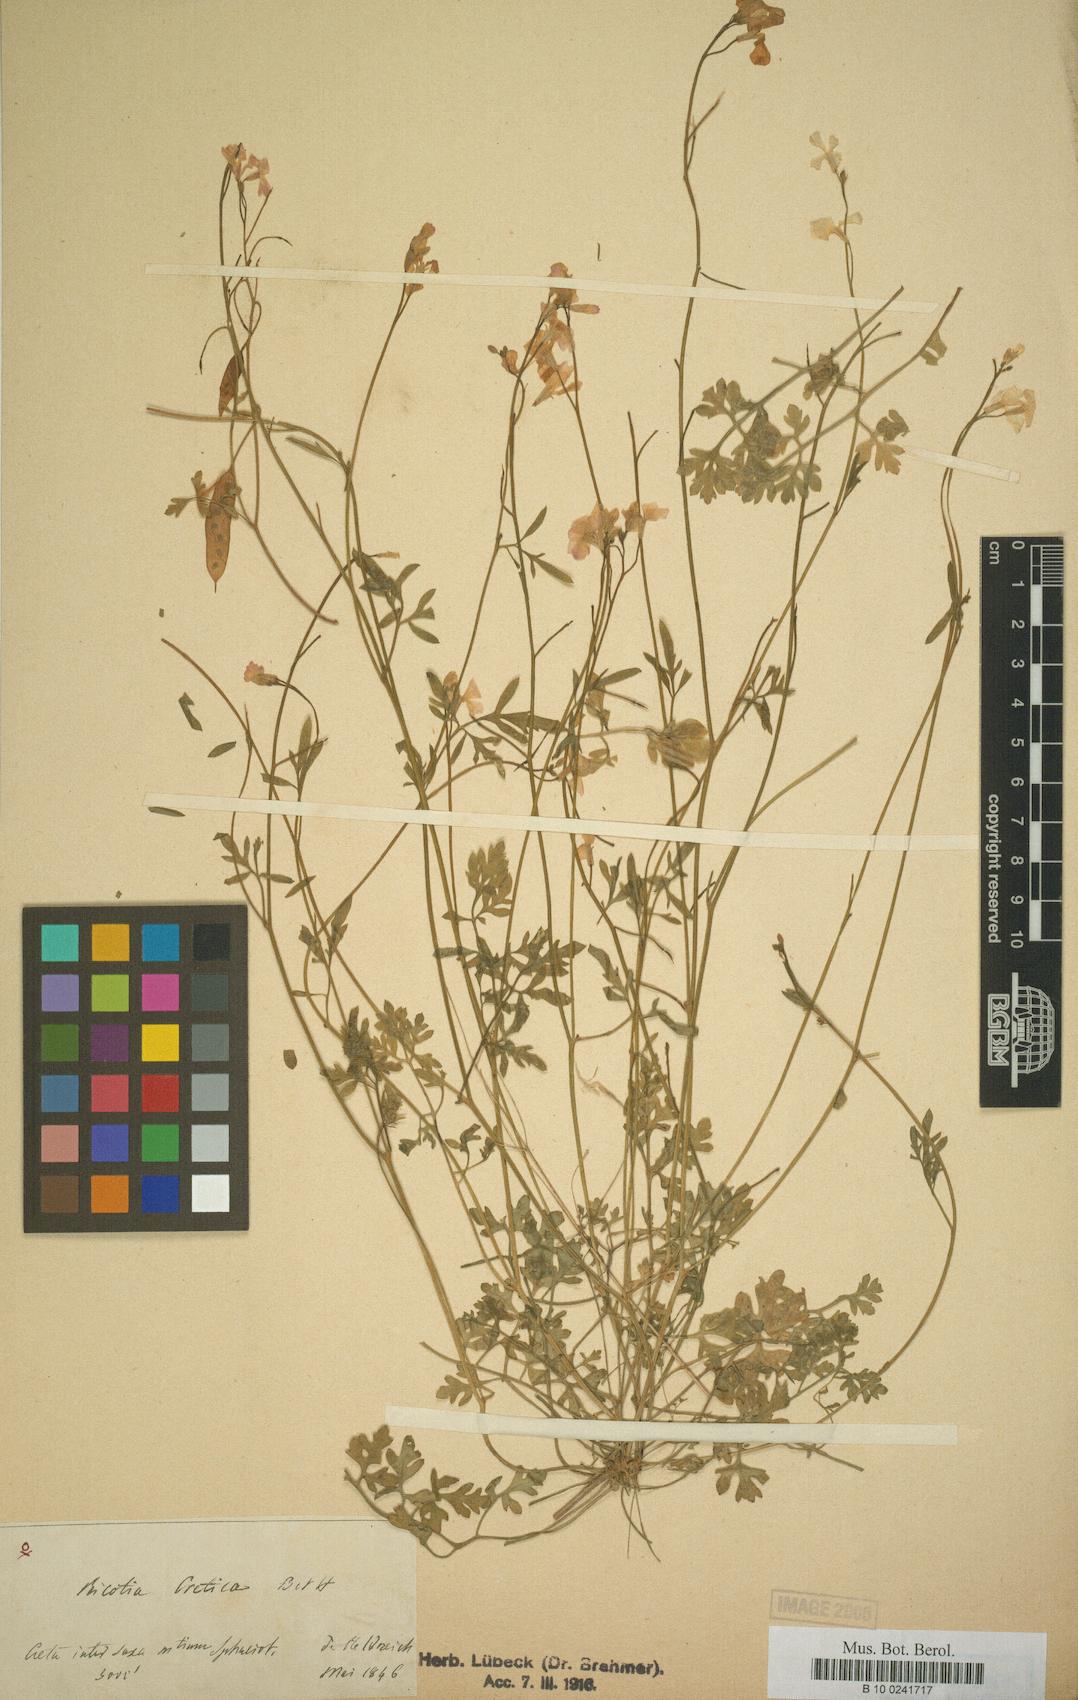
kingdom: Plantae
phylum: Tracheophyta
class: Magnoliopsida
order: Brassicales
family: Brassicaceae
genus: Ricotia
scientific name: Ricotia cretica
